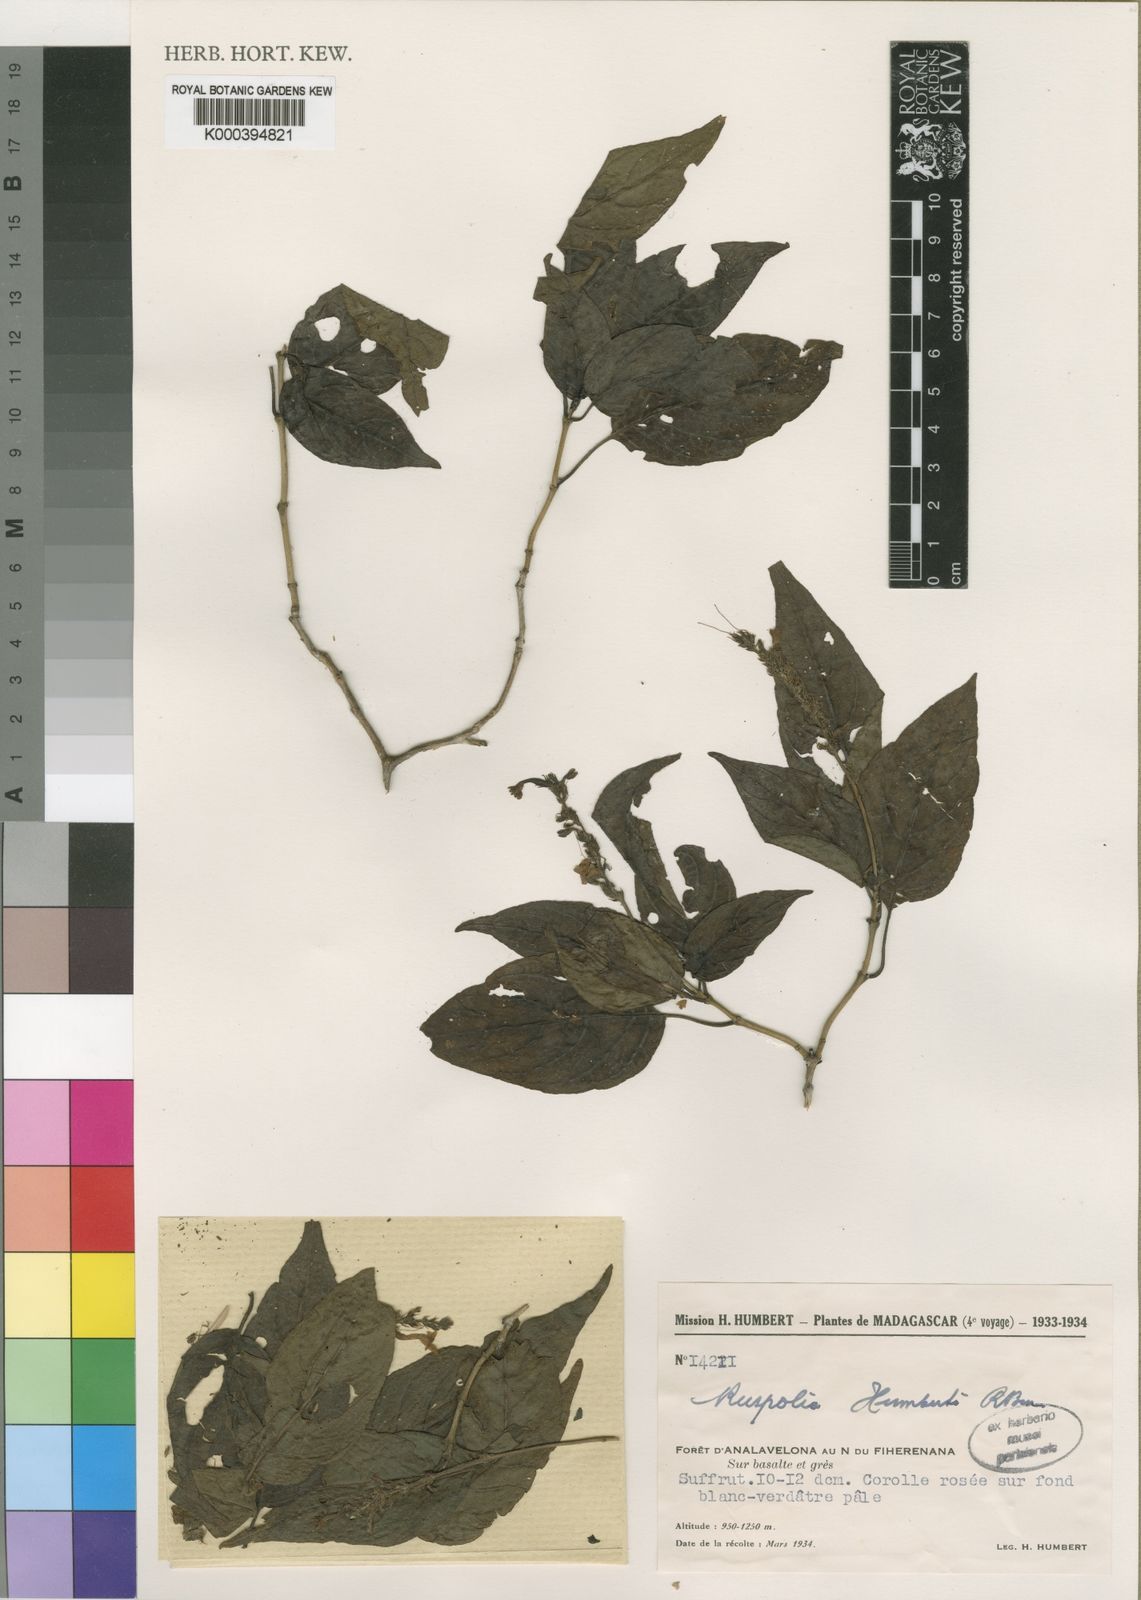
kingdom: Plantae
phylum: Tracheophyta
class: Magnoliopsida
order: Lamiales
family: Acanthaceae
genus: Ruspolia
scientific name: Ruspolia humbertii
